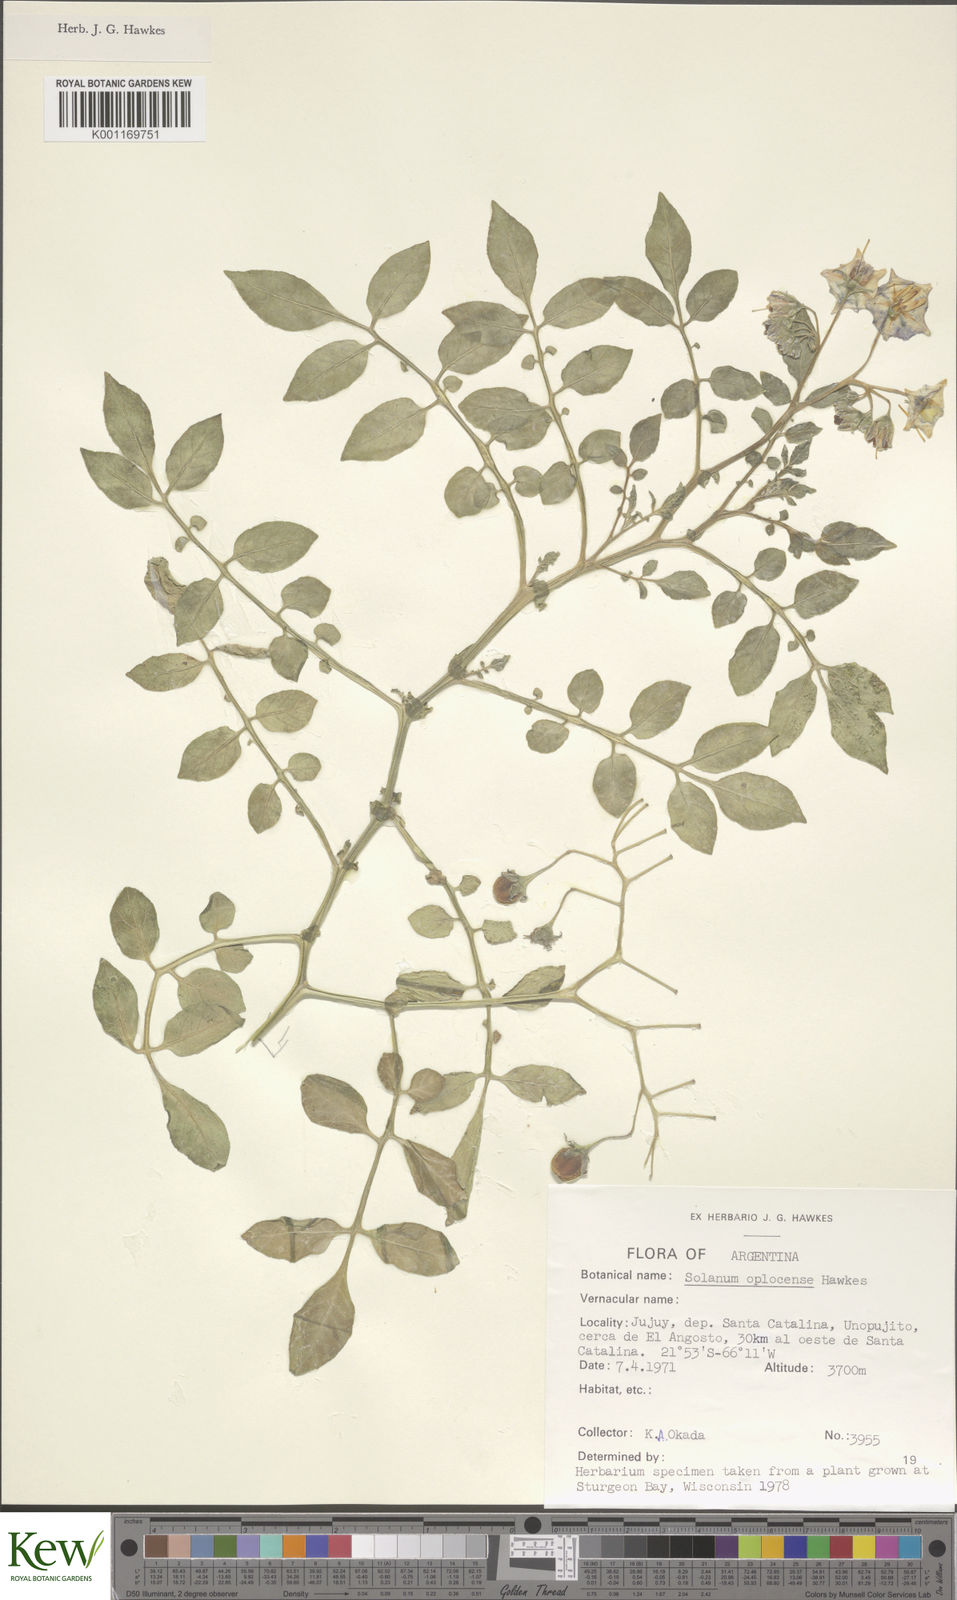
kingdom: Plantae
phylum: Tracheophyta
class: Magnoliopsida
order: Solanales
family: Solanaceae
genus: Solanum
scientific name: Solanum brevicaule
